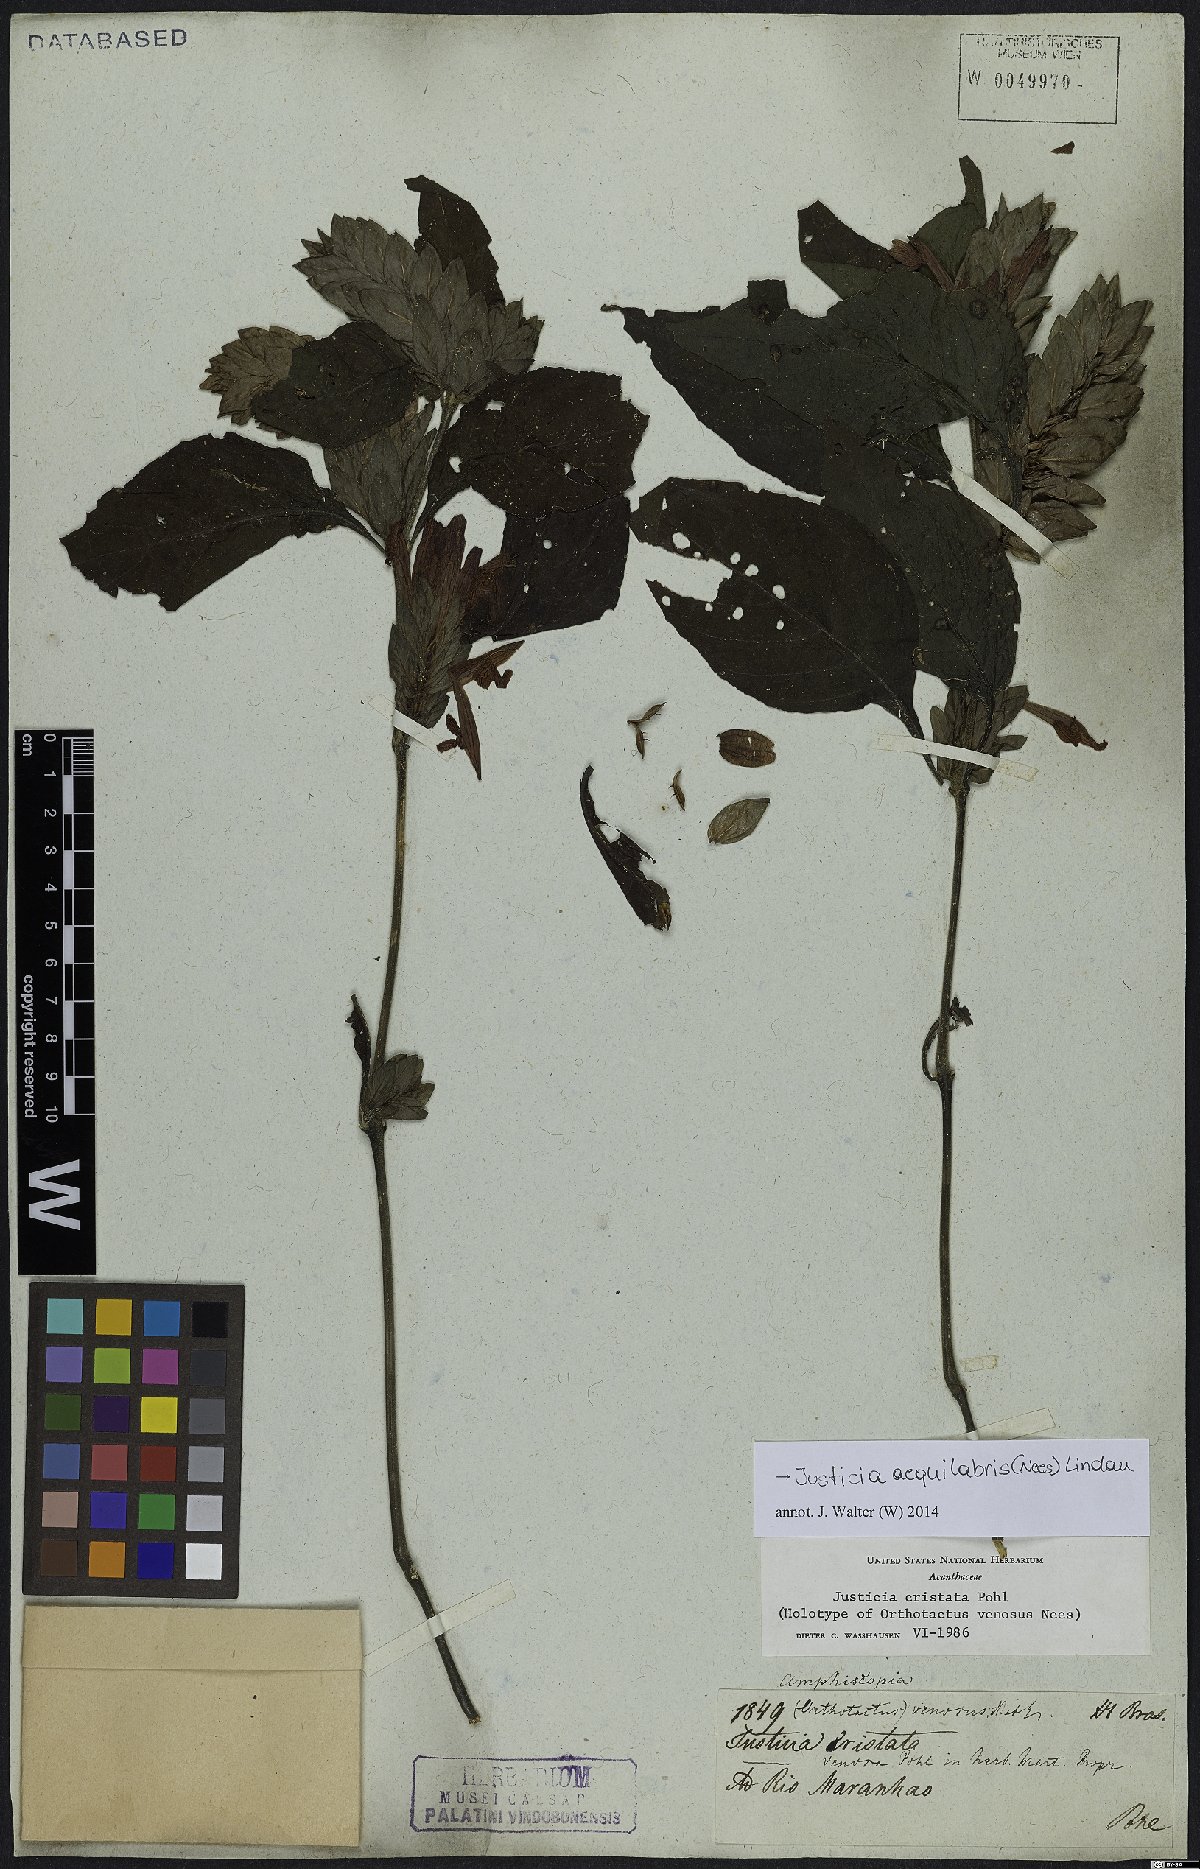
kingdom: Plantae
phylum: Tracheophyta
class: Magnoliopsida
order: Lamiales
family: Acanthaceae
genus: Justicia
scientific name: Justicia aequilabris
